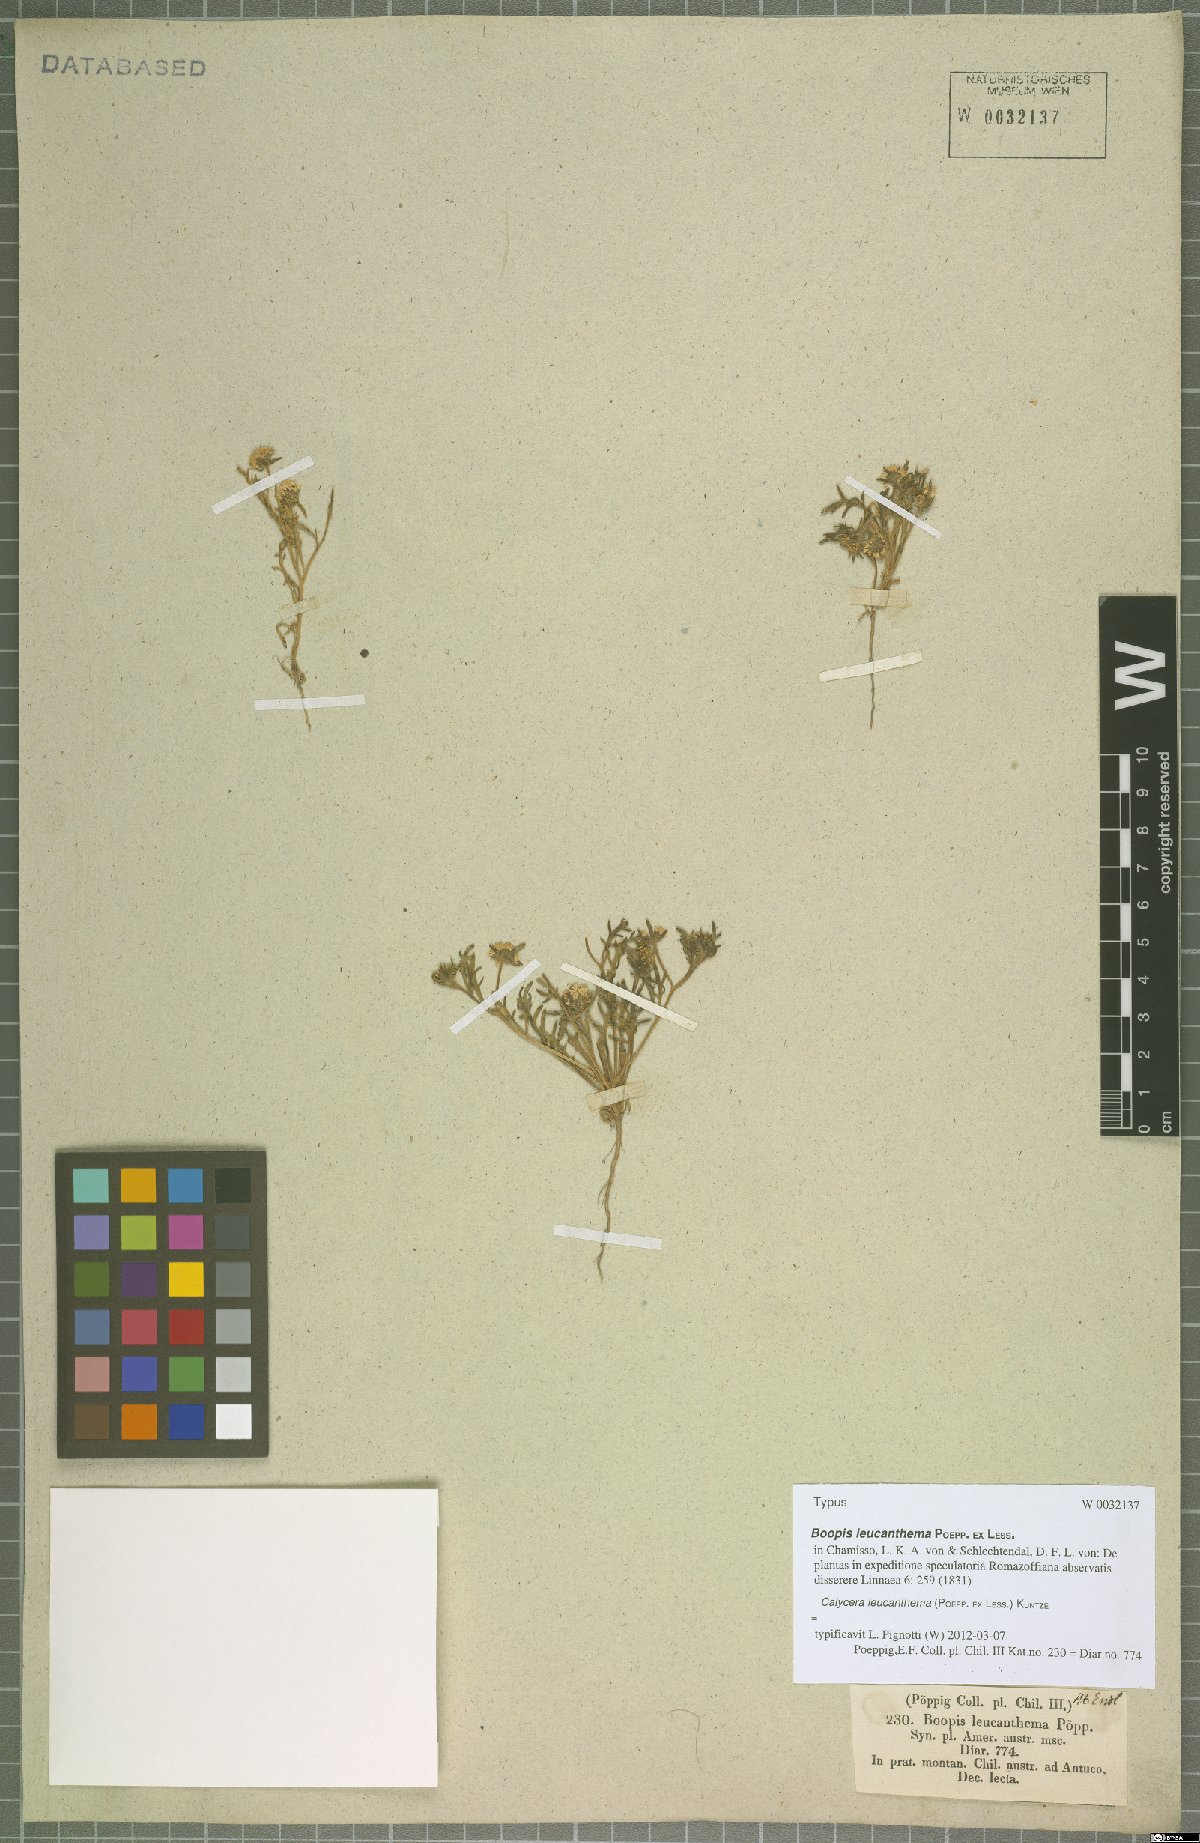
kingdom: Plantae
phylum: Tracheophyta
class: Magnoliopsida
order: Asterales
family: Calyceraceae
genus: Leucocera
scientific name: Leucocera leucanthema
